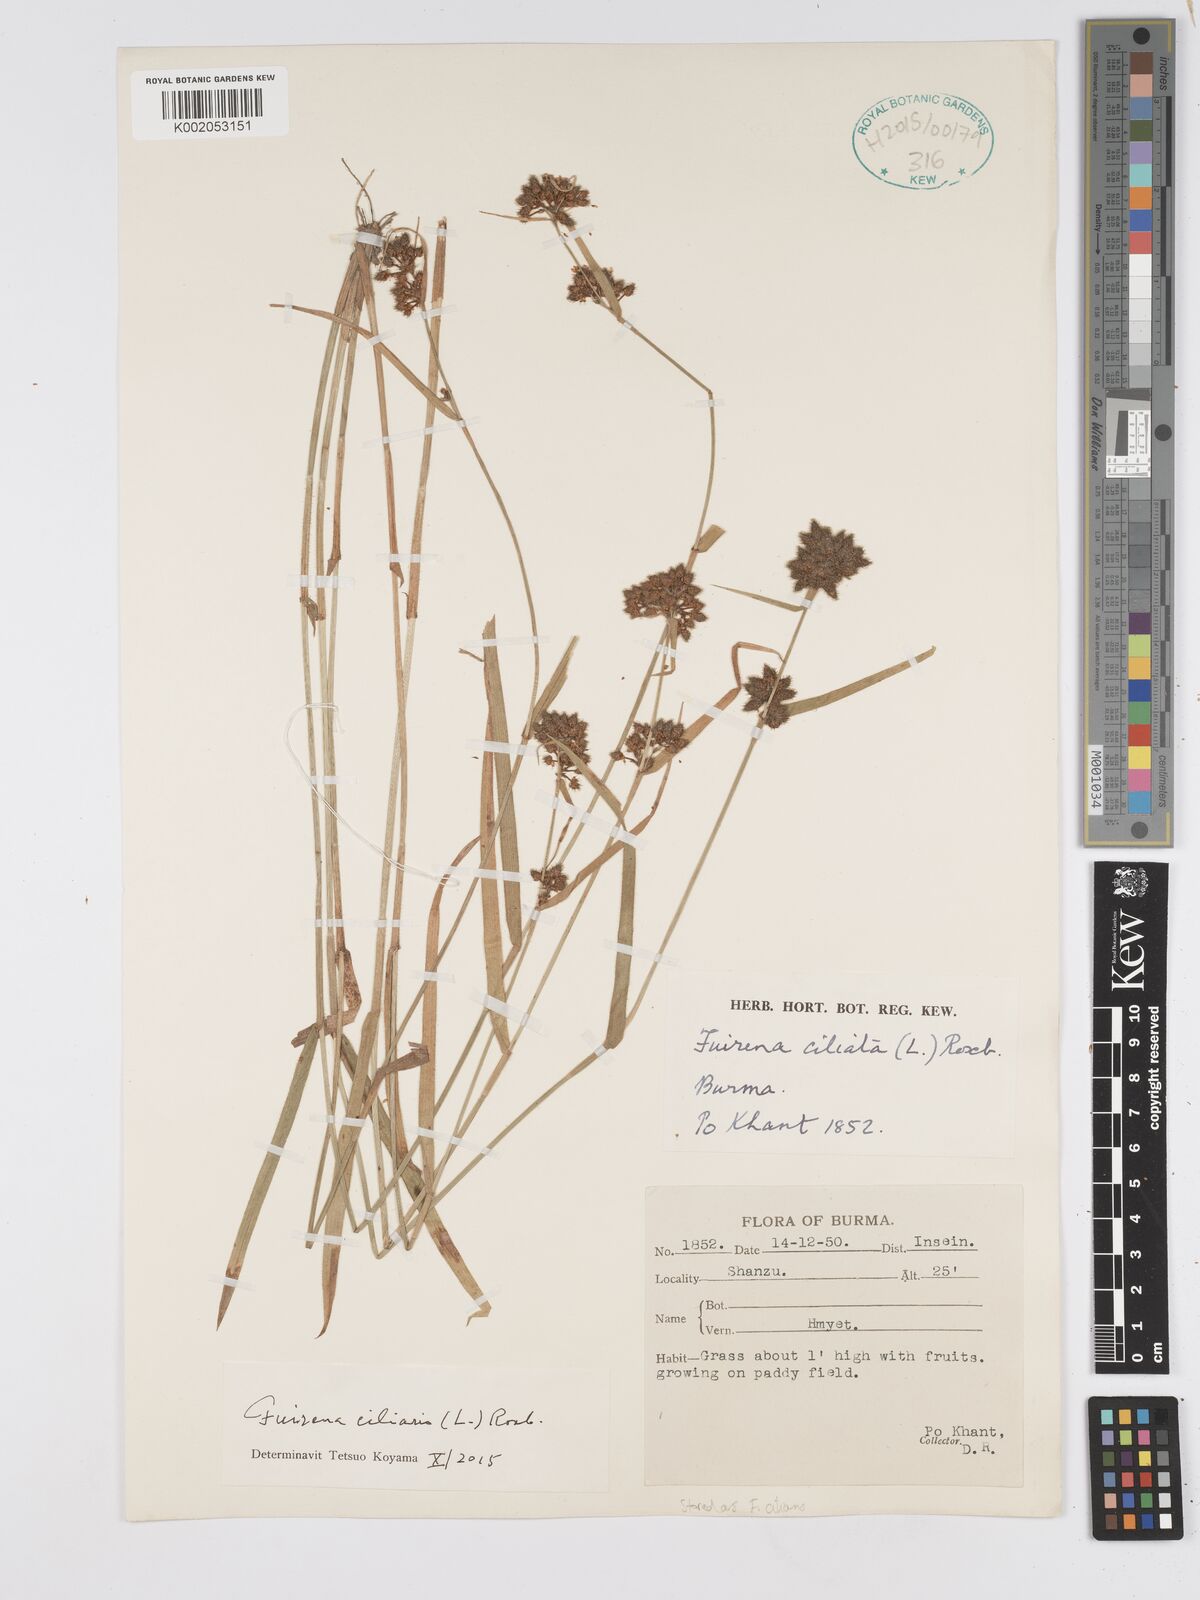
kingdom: Plantae
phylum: Tracheophyta
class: Liliopsida
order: Poales
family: Cyperaceae
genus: Fuirena
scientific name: Fuirena ciliaris
